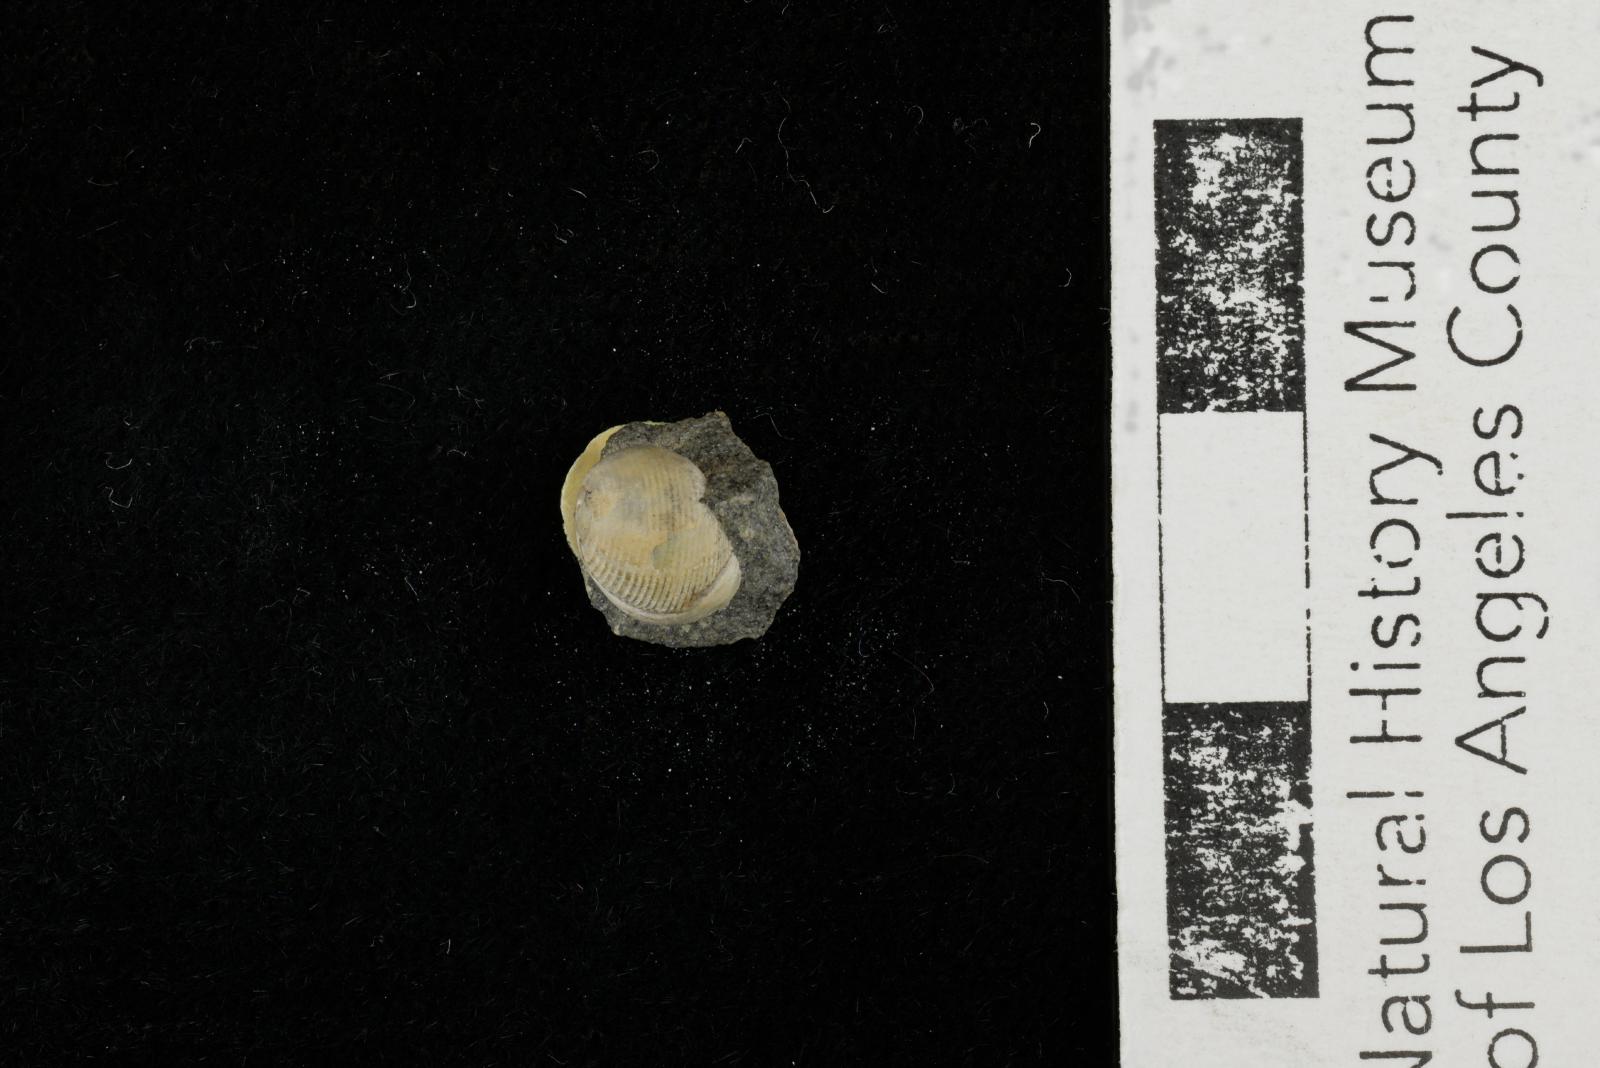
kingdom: Animalia
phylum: Mollusca
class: Gastropoda
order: Cephalaspidea
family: Ringiculidae
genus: Biplica
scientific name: Biplica heteroplicata
